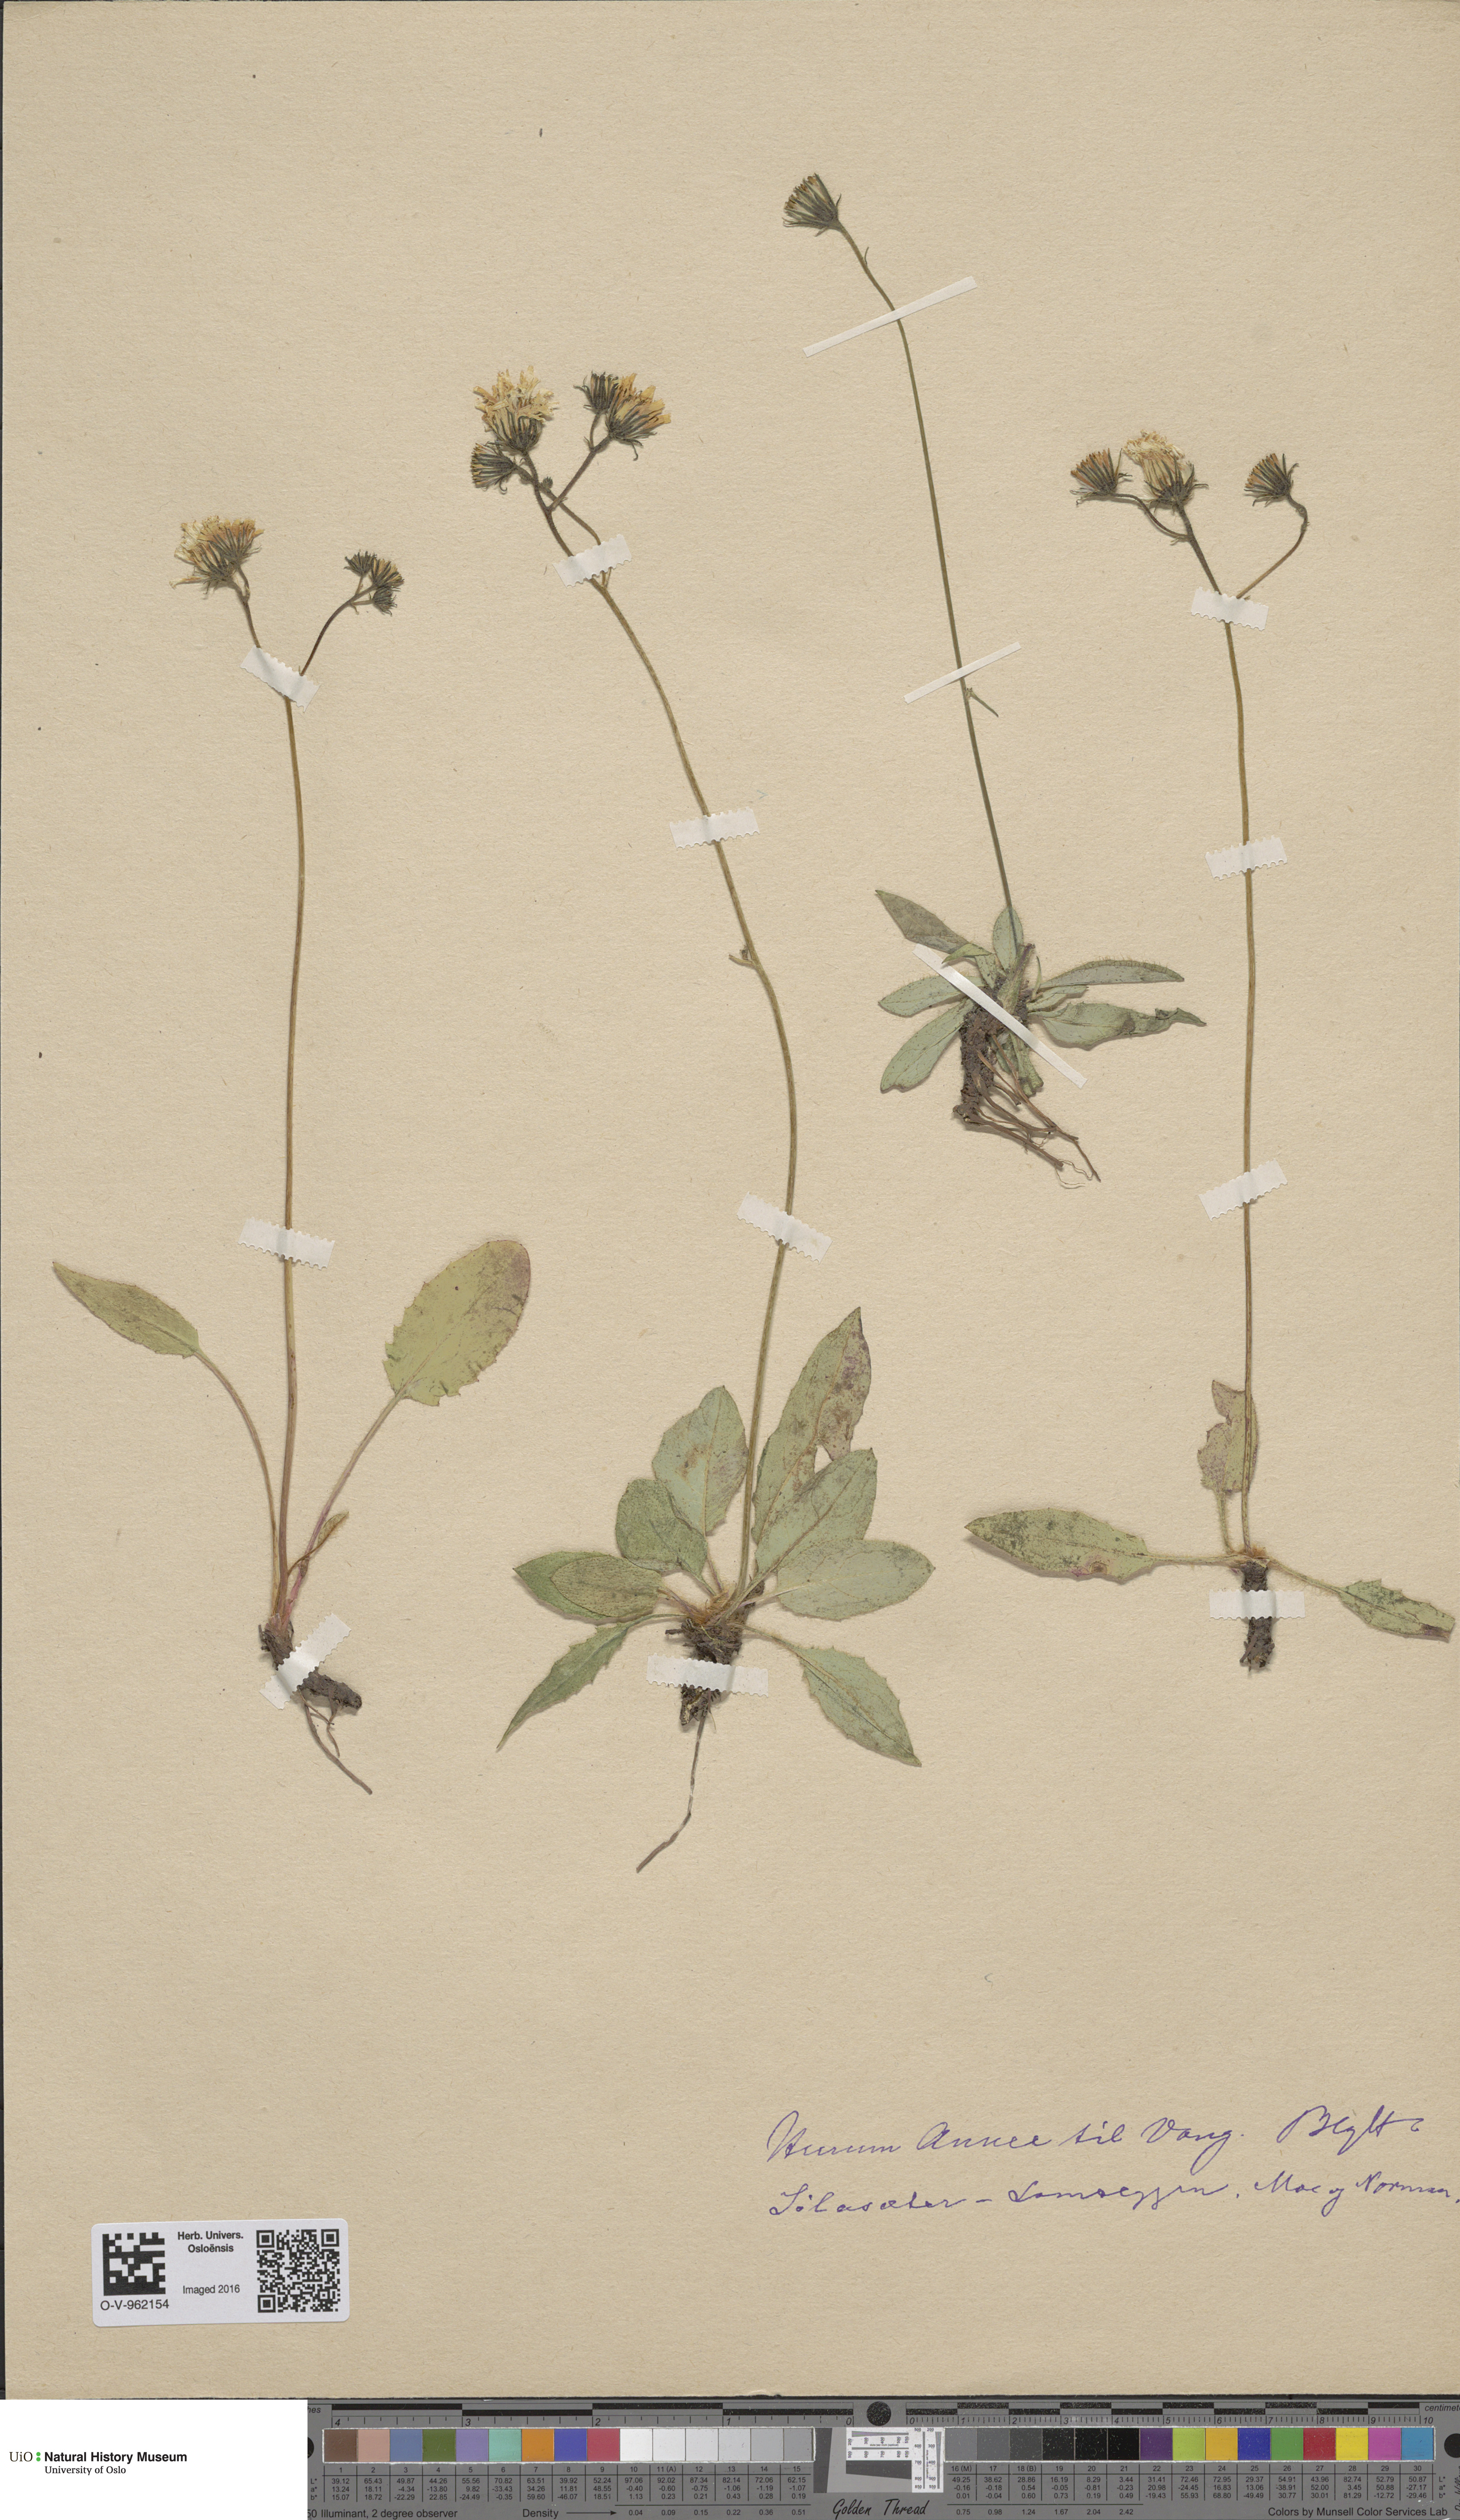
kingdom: Plantae
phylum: Tracheophyta
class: Magnoliopsida
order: Asterales
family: Asteraceae
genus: Hieracium
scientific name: Hieracium
